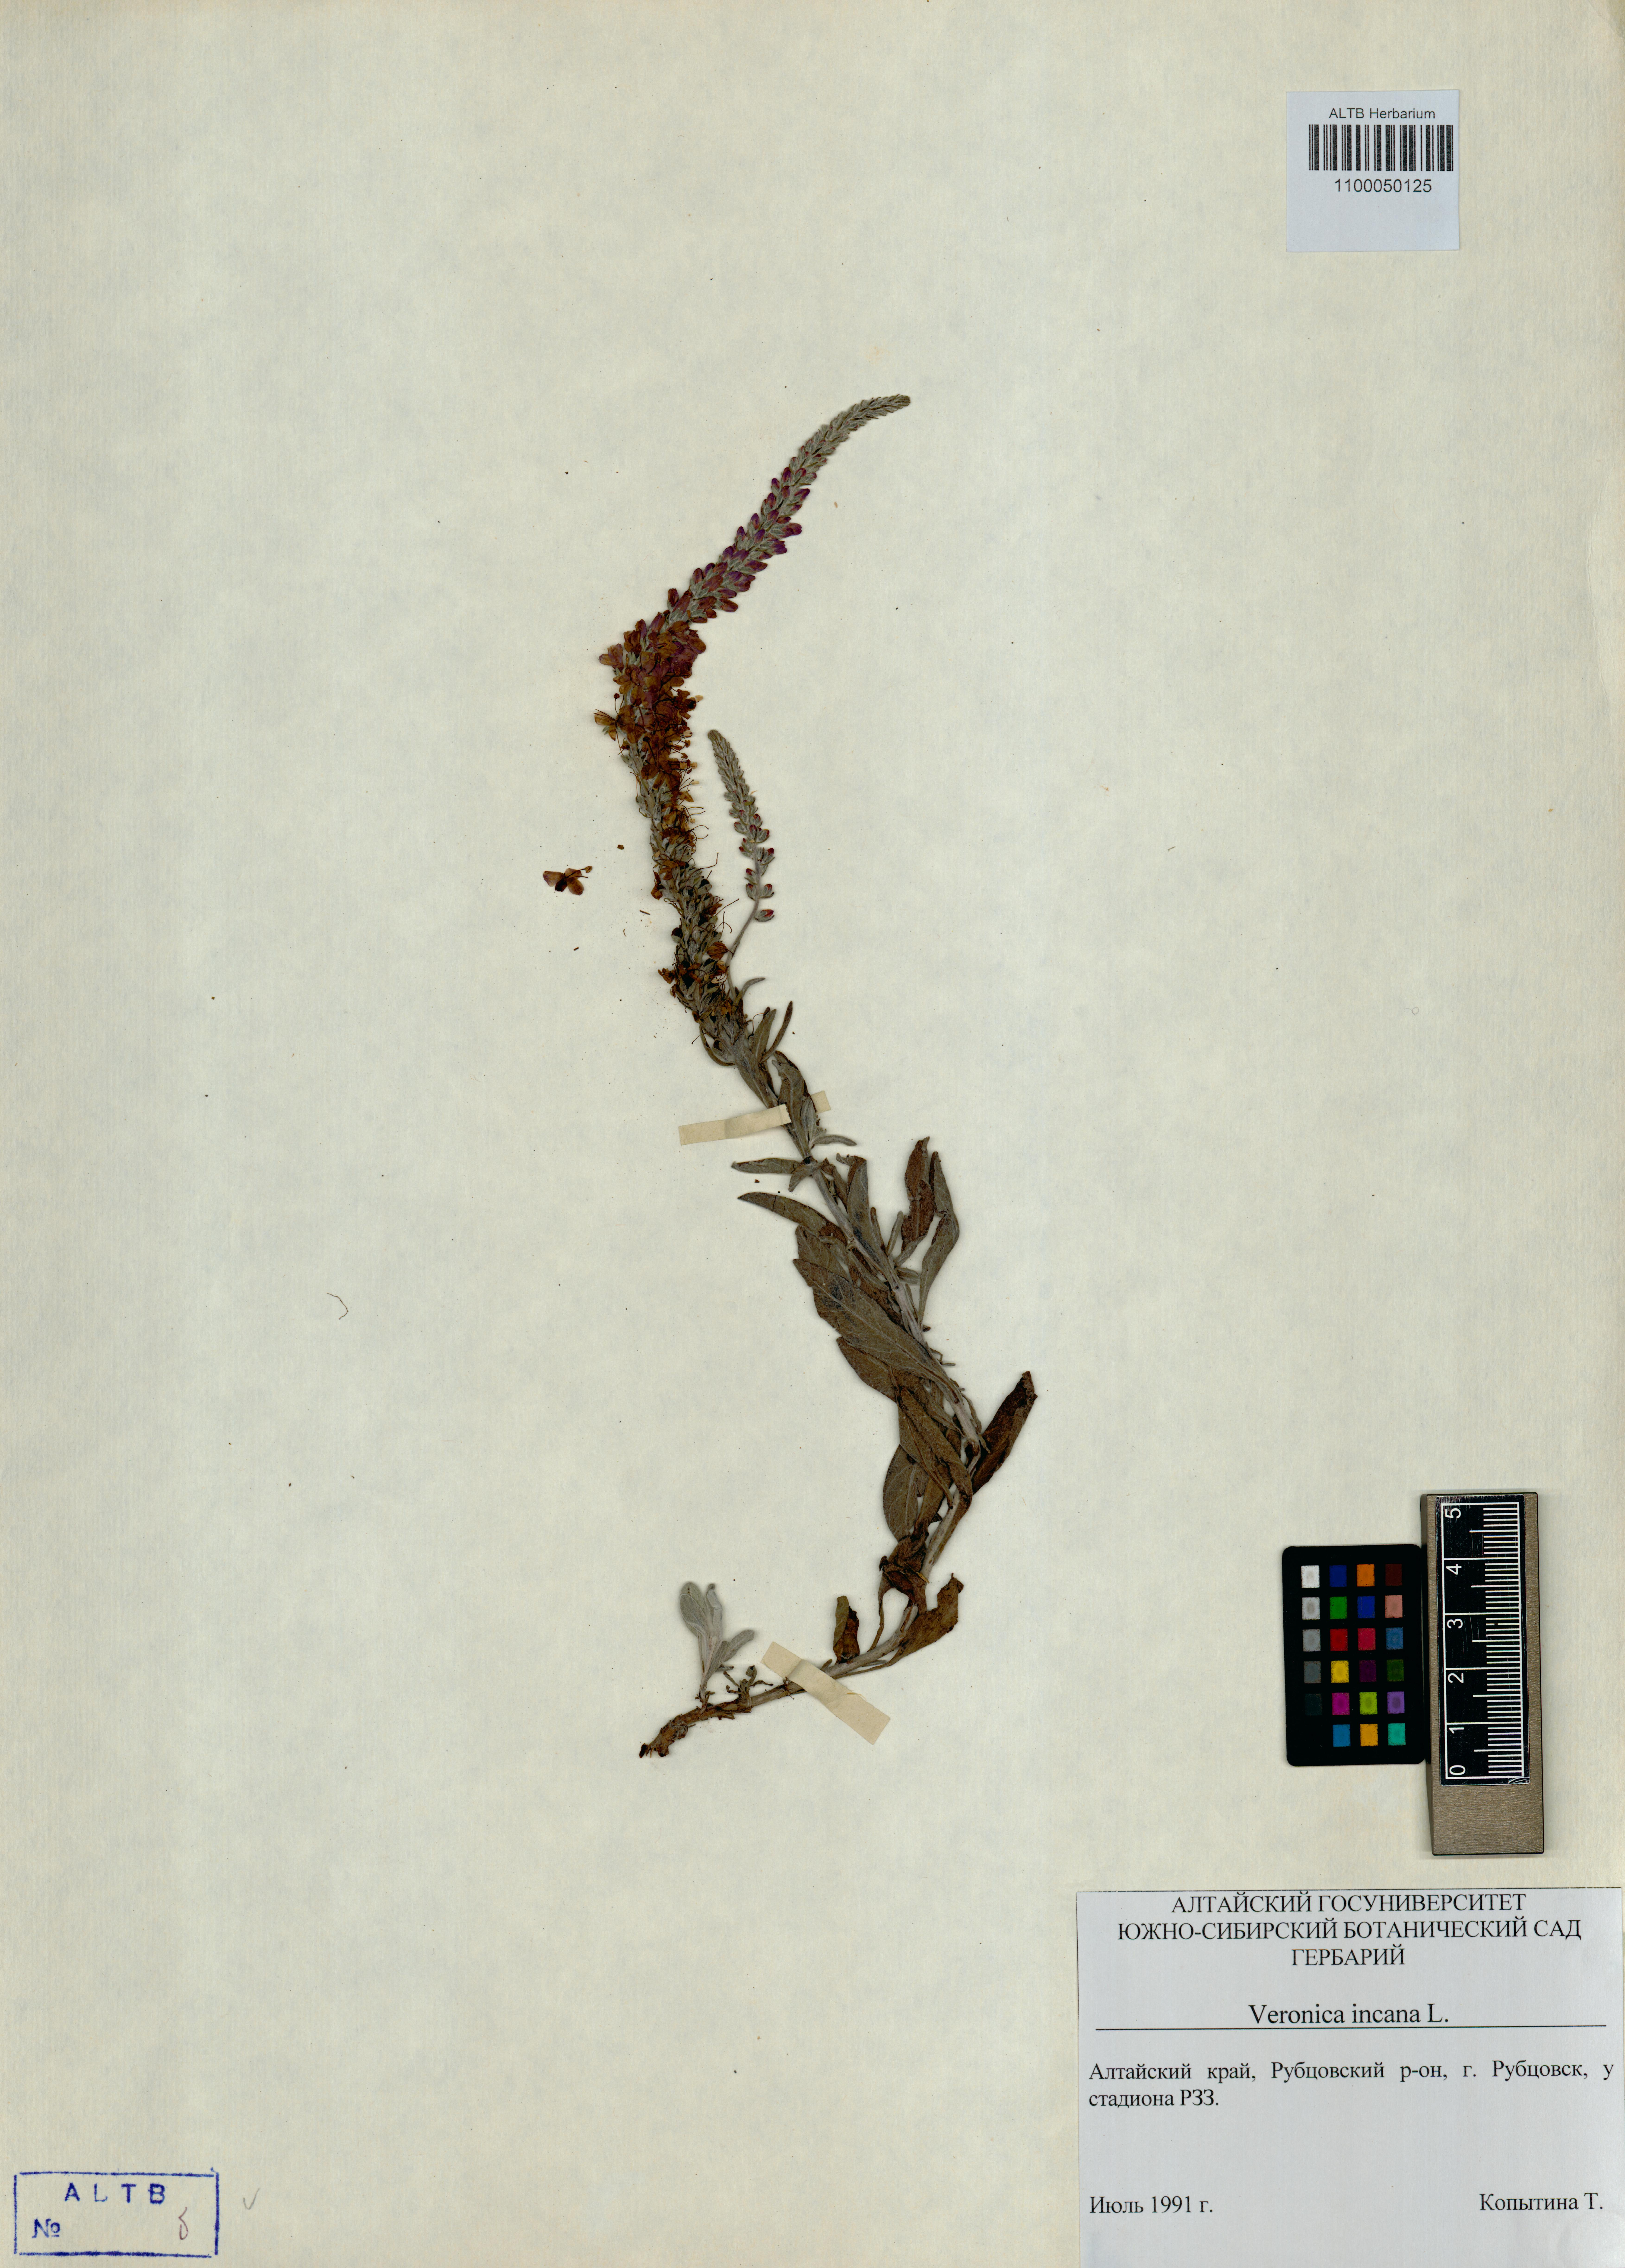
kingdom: Plantae
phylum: Tracheophyta
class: Magnoliopsida
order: Lamiales
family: Plantaginaceae
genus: Veronica
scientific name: Veronica incana
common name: Silver speedwell
